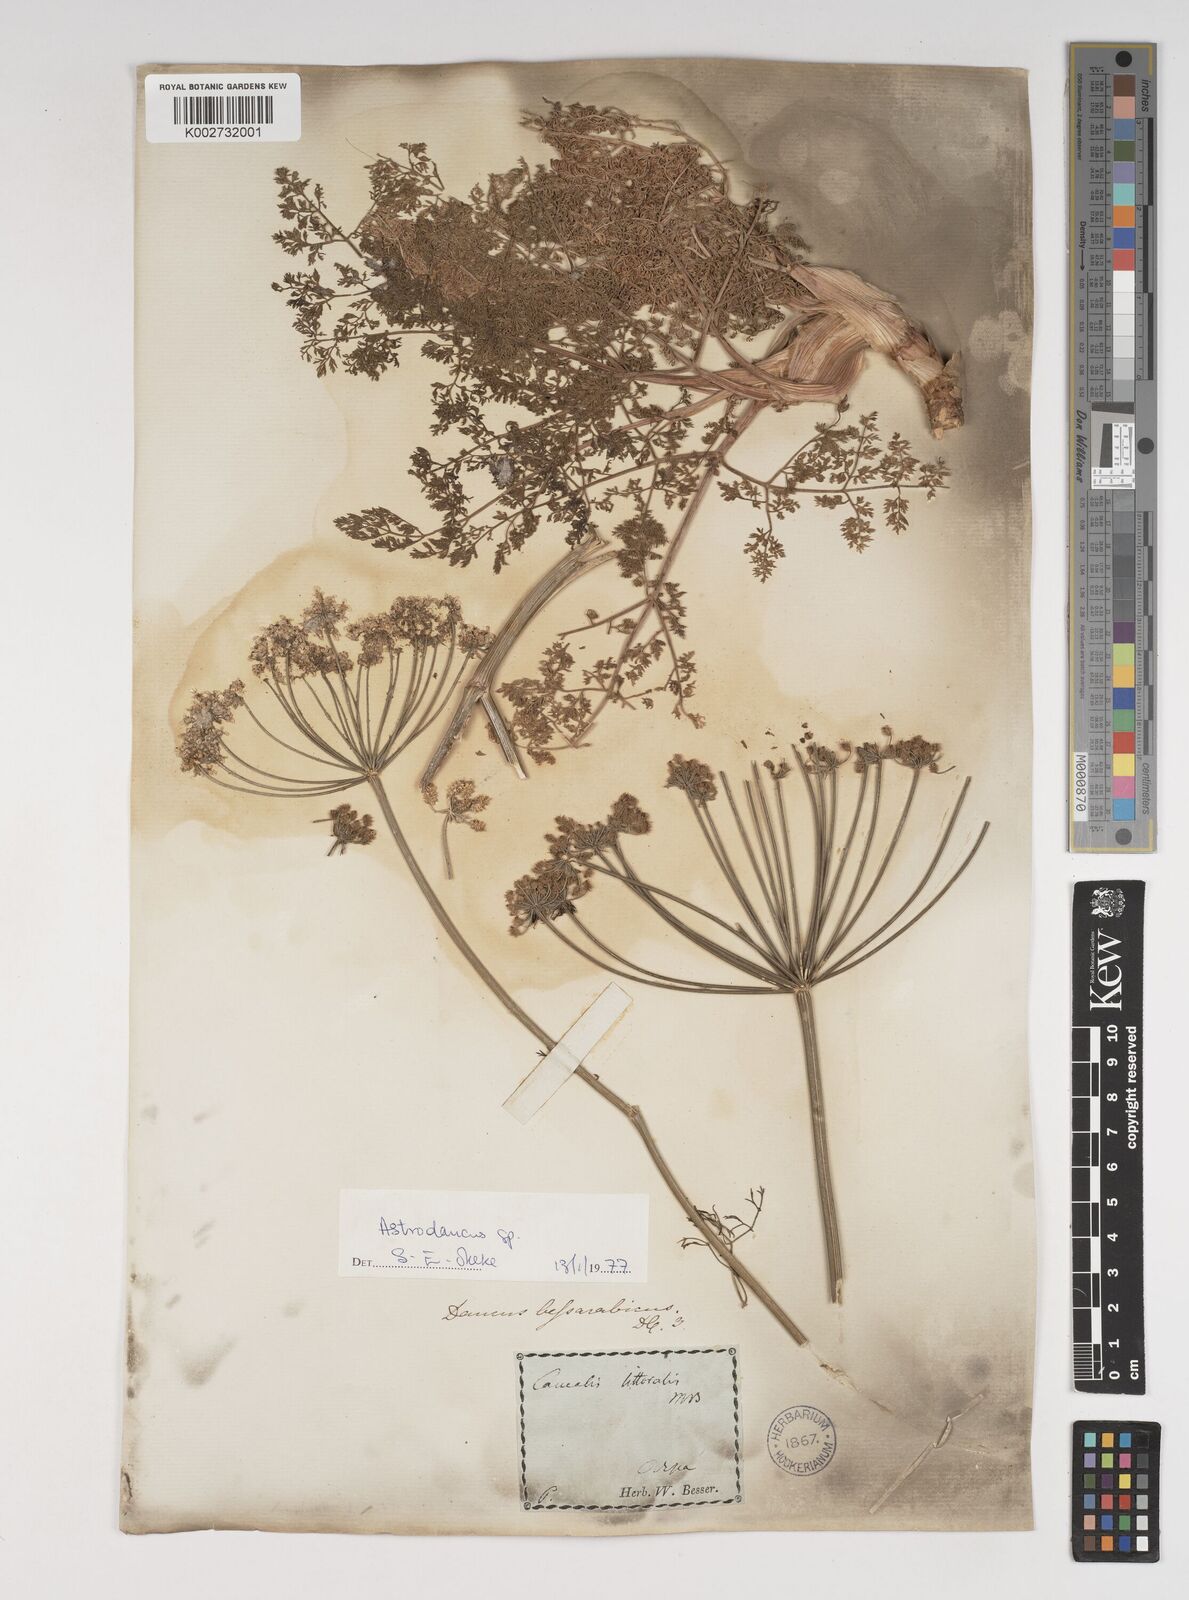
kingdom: Plantae
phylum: Tracheophyta
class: Magnoliopsida
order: Apiales
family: Apiaceae
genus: Astrodaucus
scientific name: Astrodaucus littoralis
